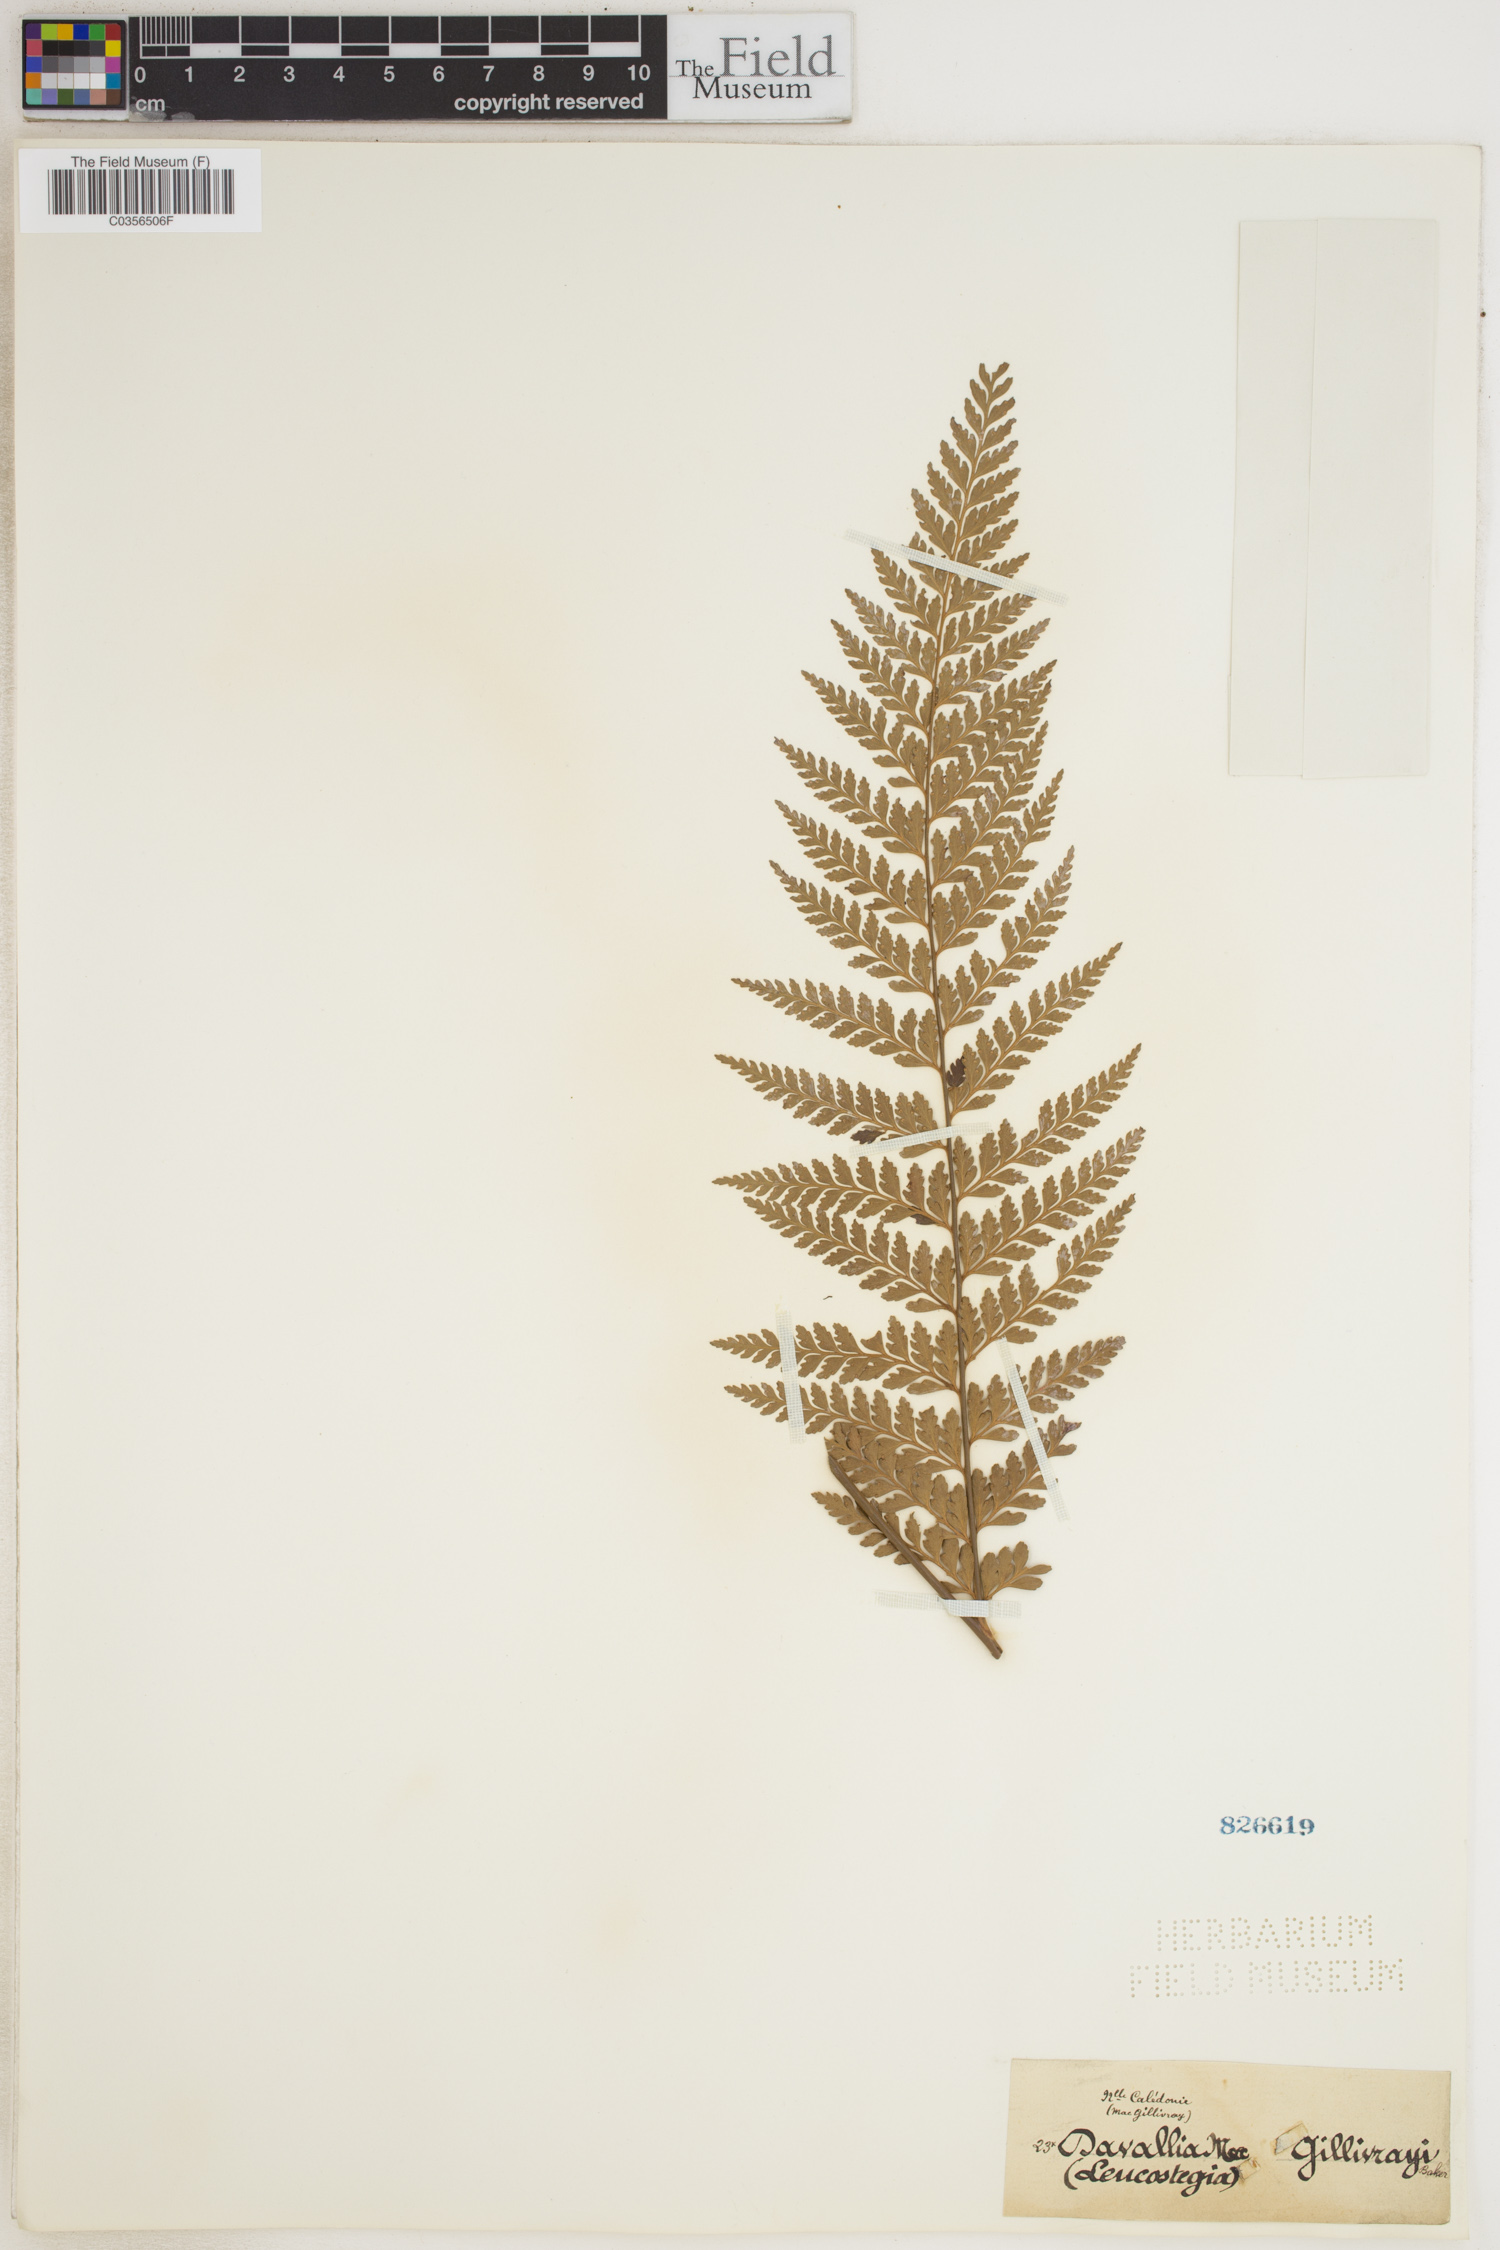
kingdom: Plantae
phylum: Tracheophyta
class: Polypodiopsida
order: Polypodiales
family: Dennstaedtiaceae
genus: Dennstaedtia
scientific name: Dennstaedtia maxima
